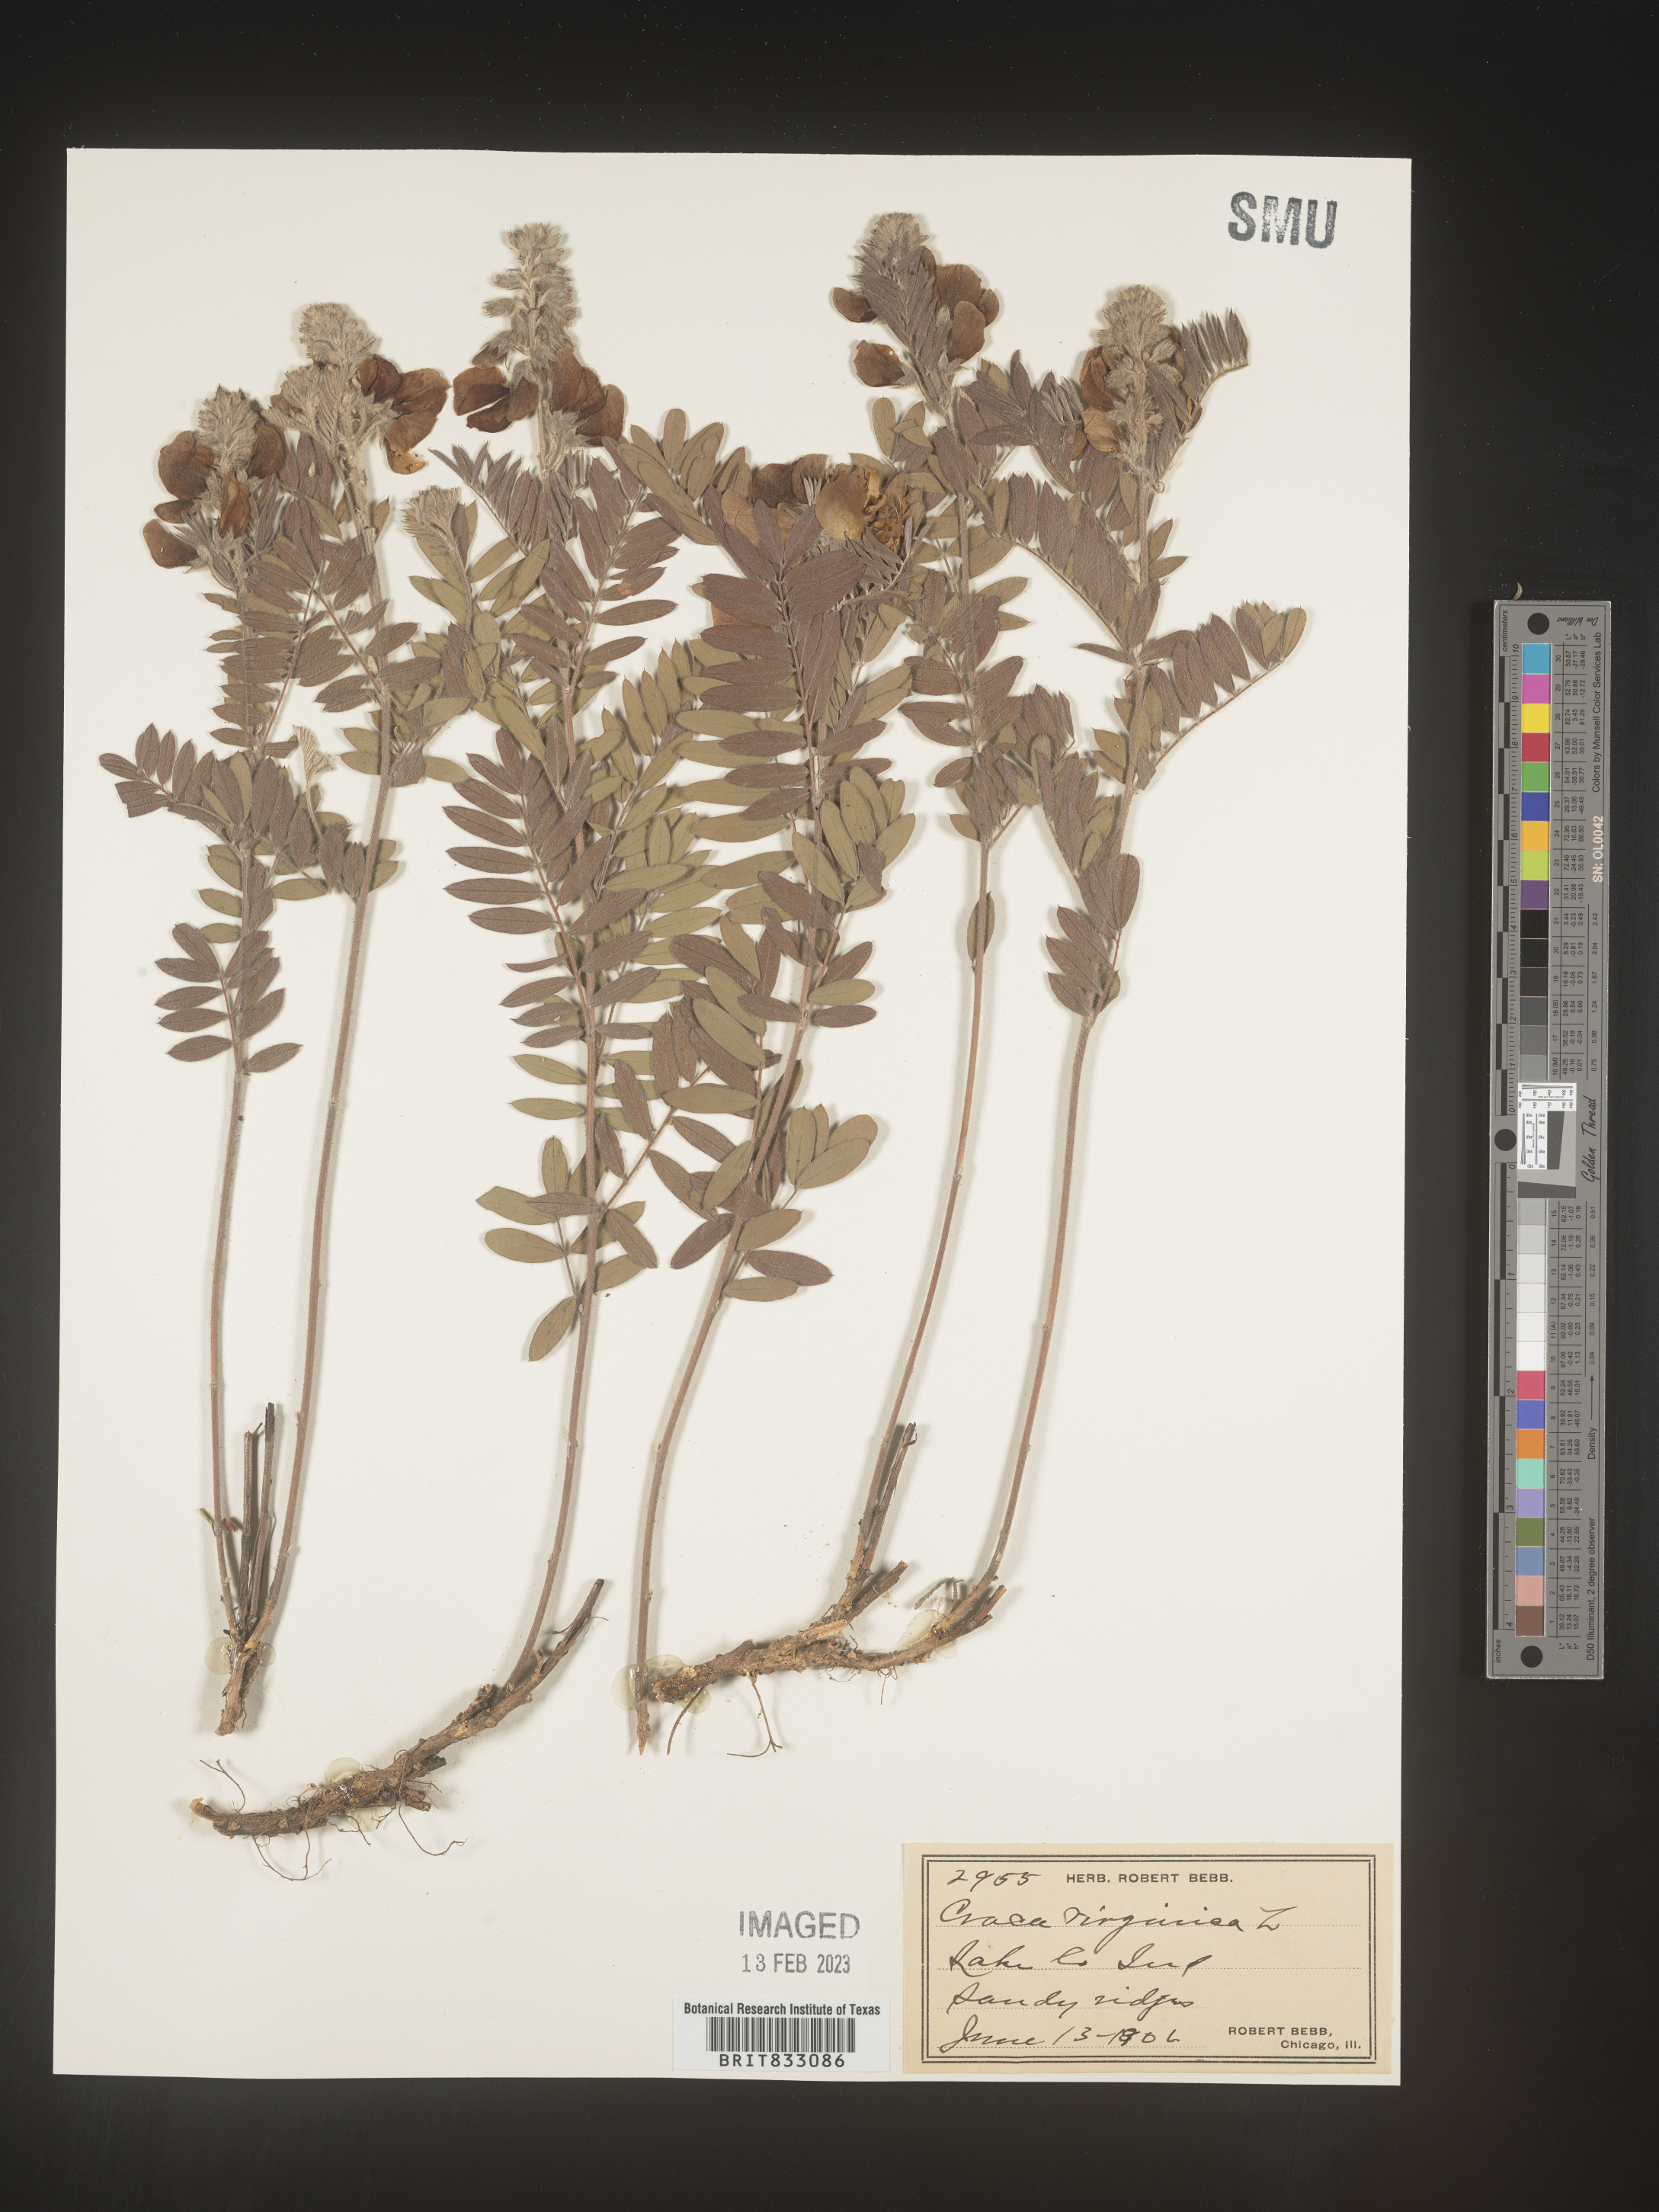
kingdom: Plantae
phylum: Tracheophyta
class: Magnoliopsida
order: Fabales
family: Fabaceae
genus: Tephrosia
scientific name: Tephrosia virginiana
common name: Rabbit-pea
